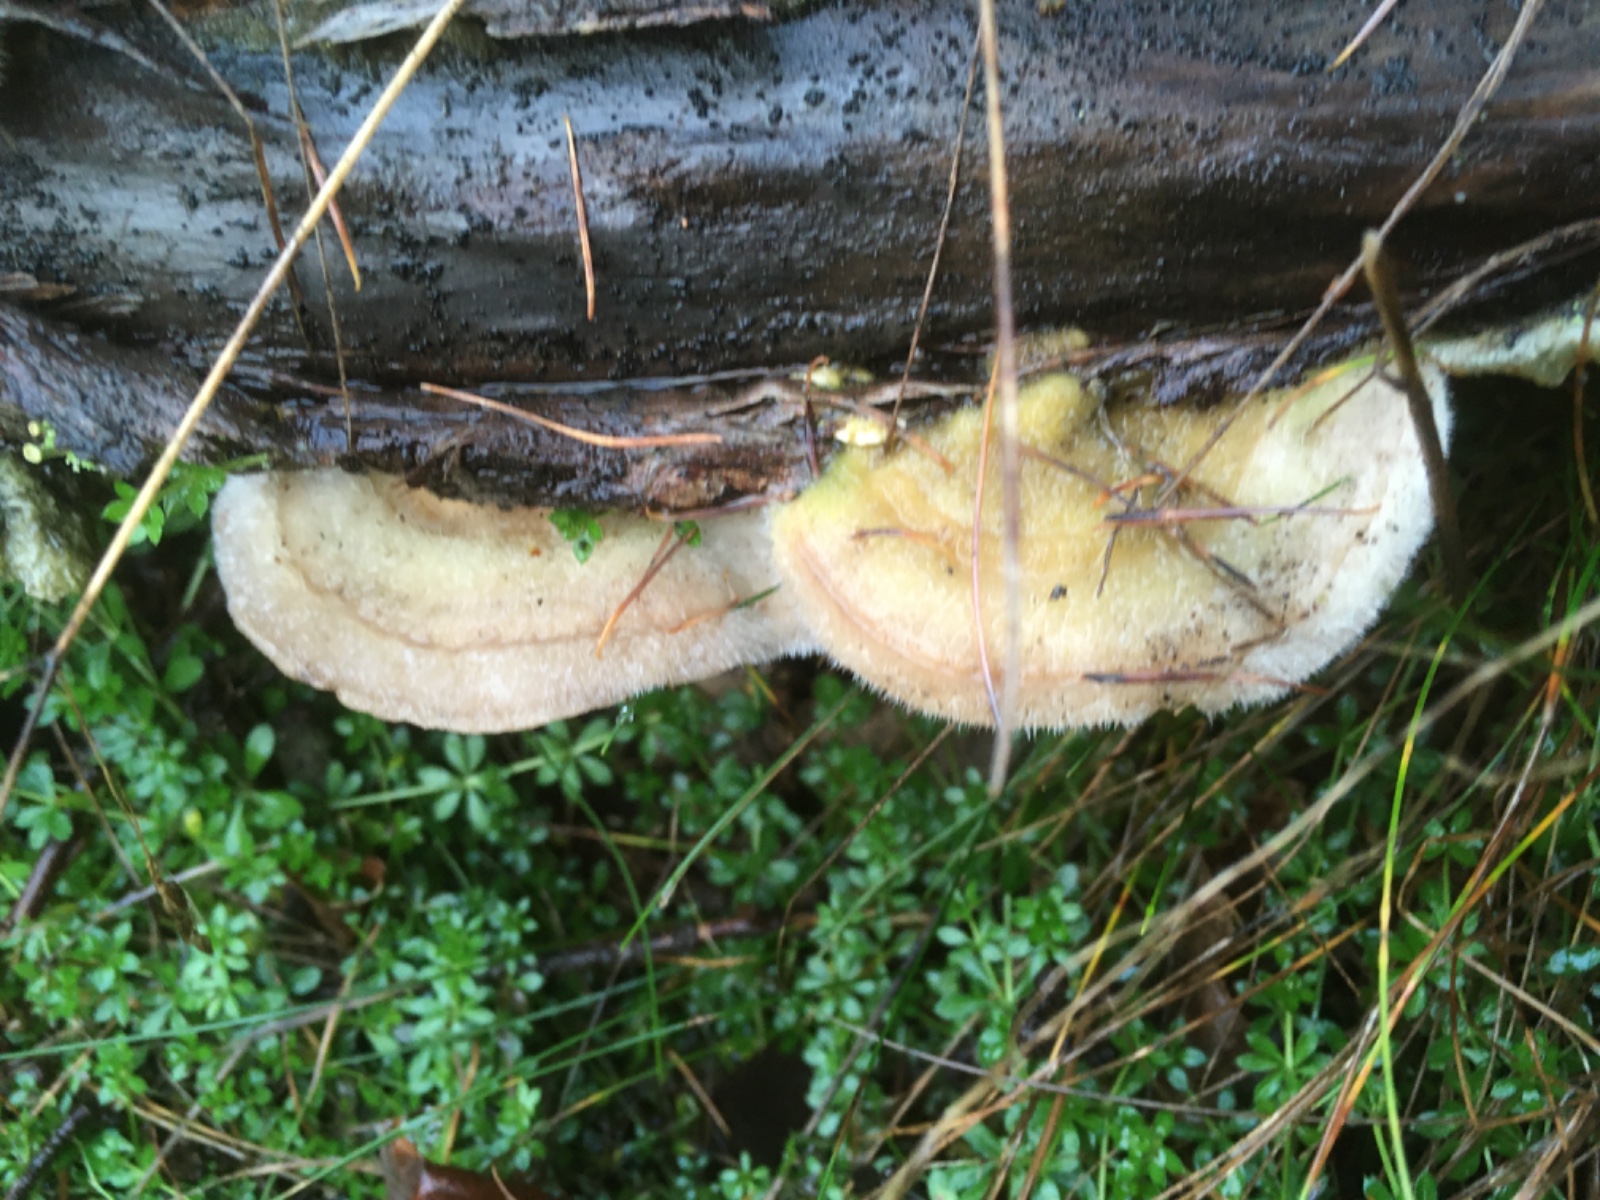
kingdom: Fungi
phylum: Basidiomycota
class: Agaricomycetes
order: Polyporales
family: Polyporaceae
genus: Trametes
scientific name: Trametes hirsuta
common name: håret læderporesvamp
